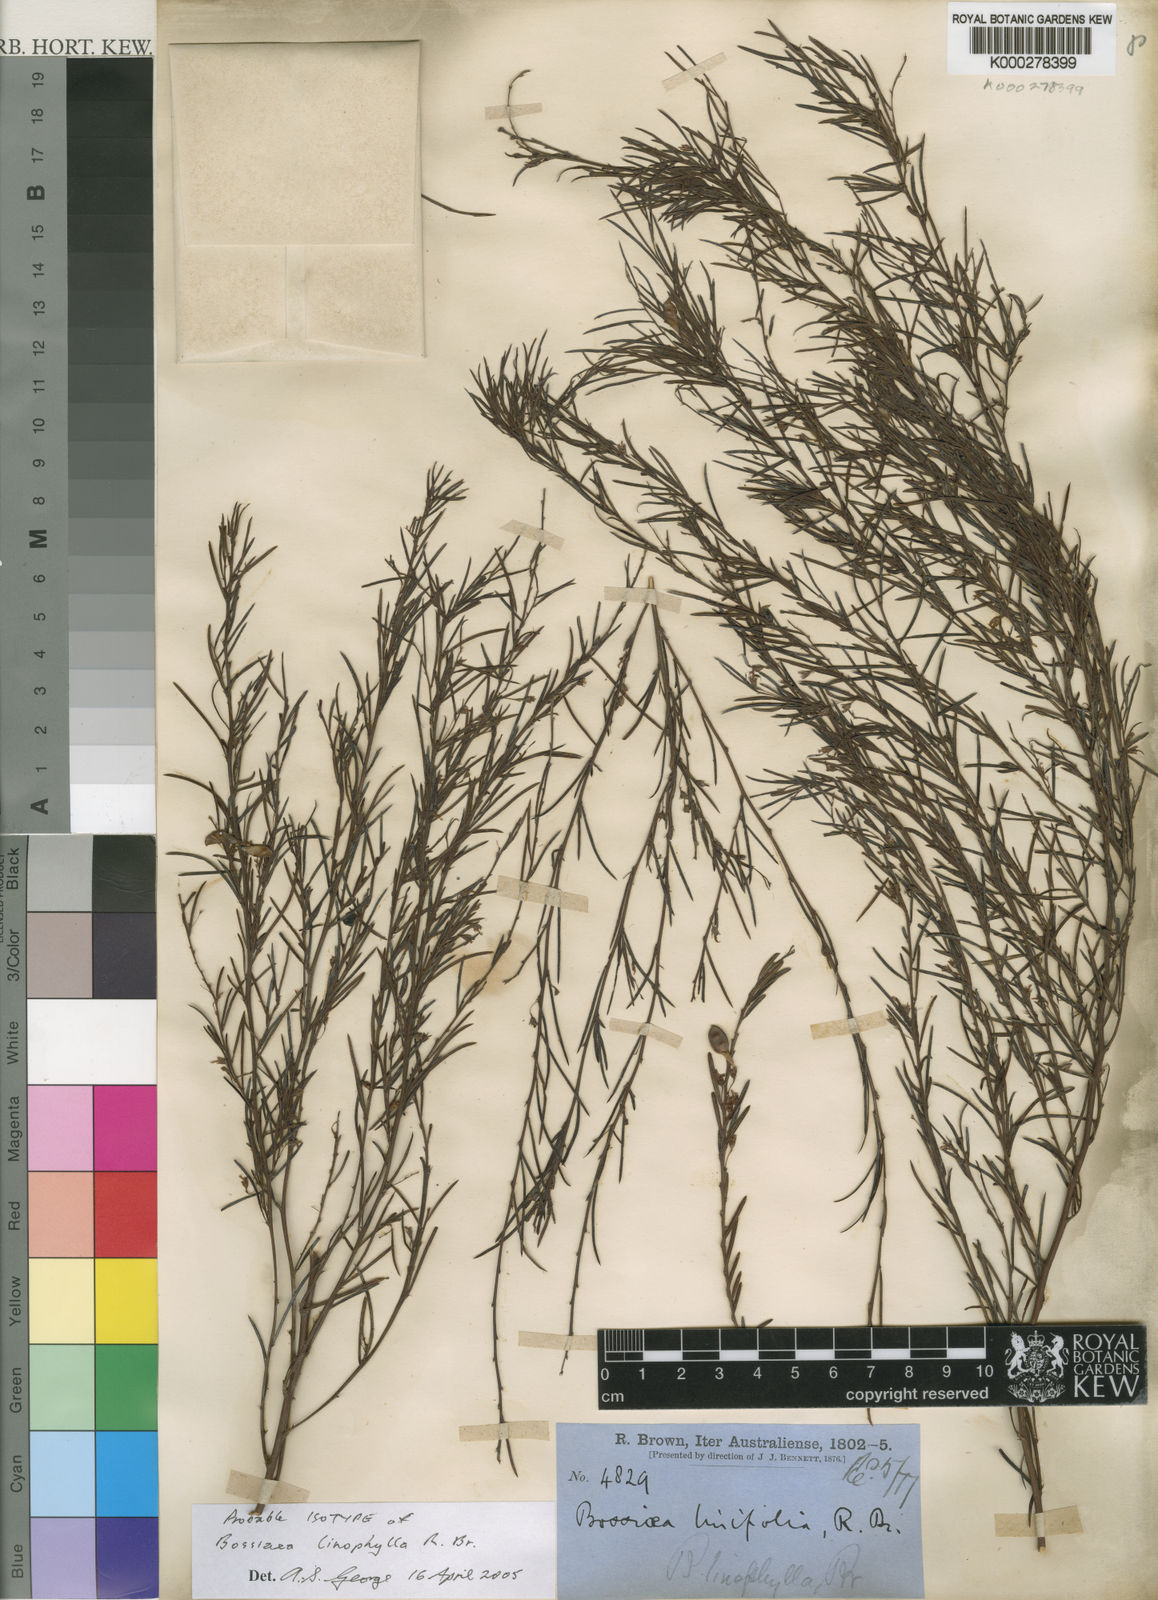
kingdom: Plantae
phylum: Tracheophyta
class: Magnoliopsida
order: Fabales
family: Fabaceae
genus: Bossiaea
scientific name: Bossiaea linophylla
